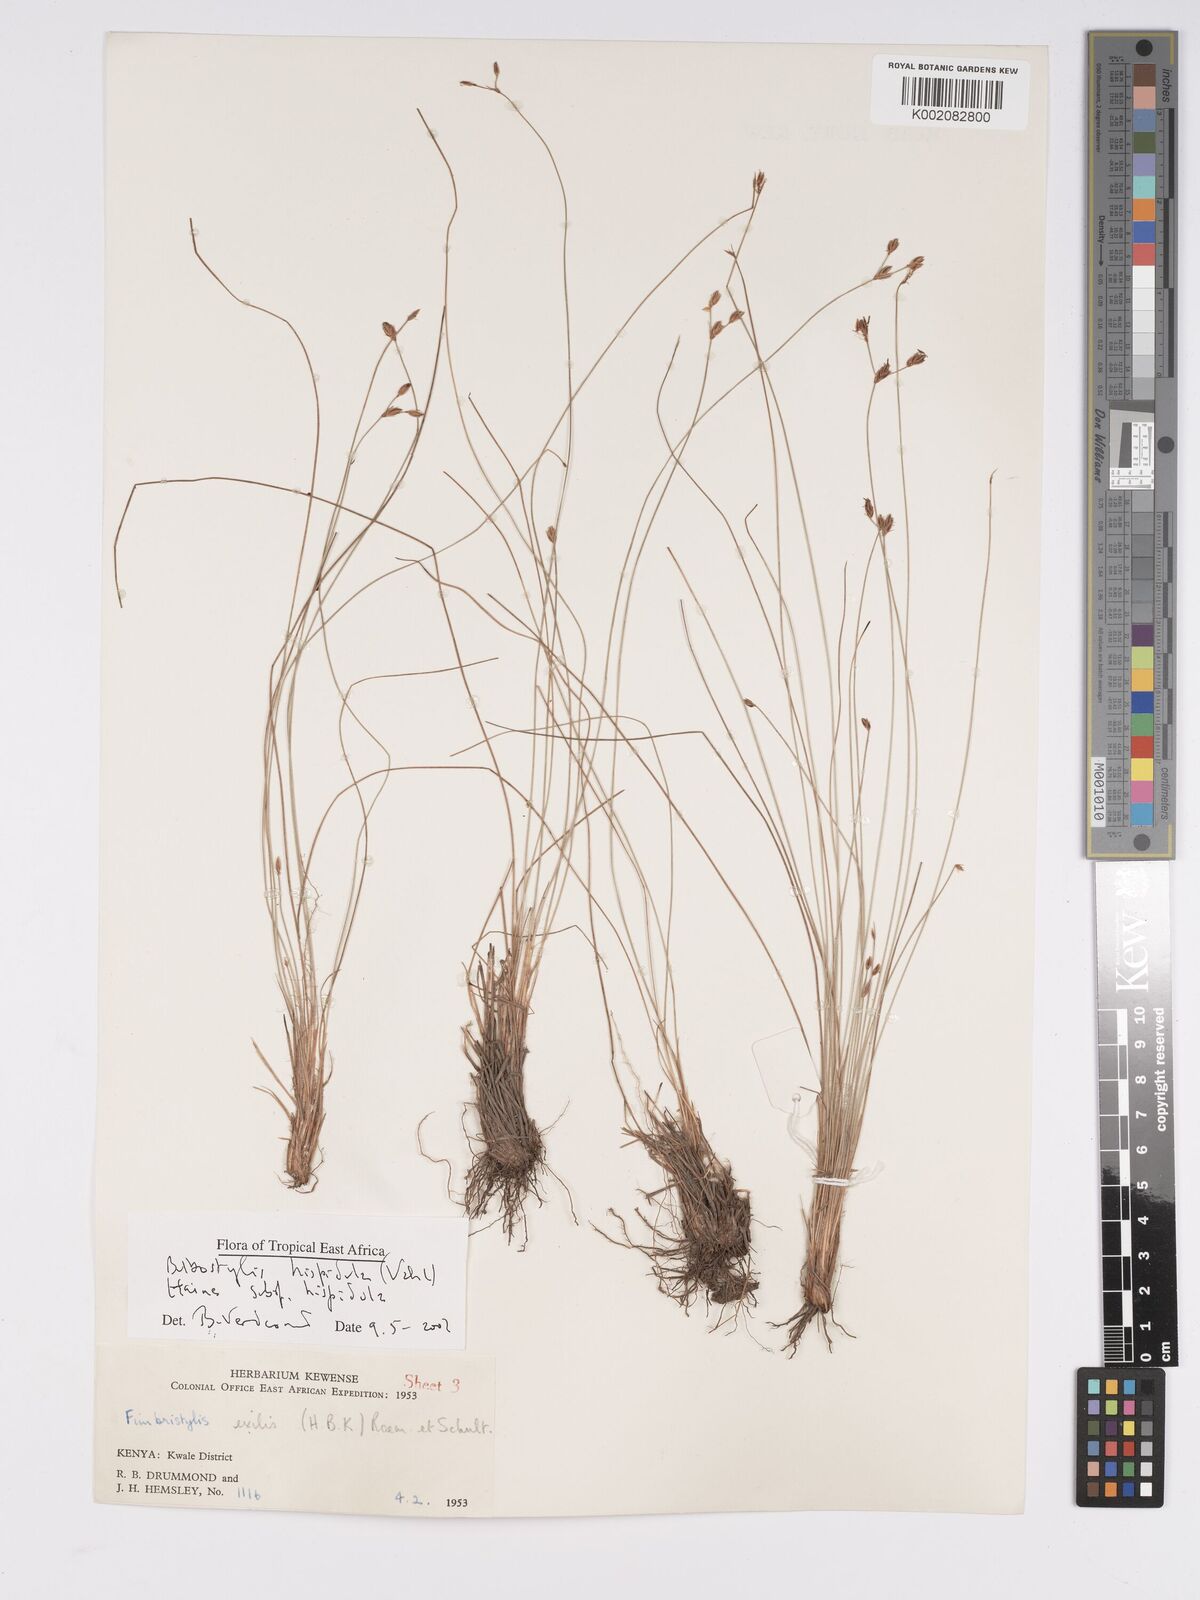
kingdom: Plantae
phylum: Tracheophyta
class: Liliopsida
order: Poales
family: Cyperaceae
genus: Bulbostylis
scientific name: Bulbostylis hispidula
